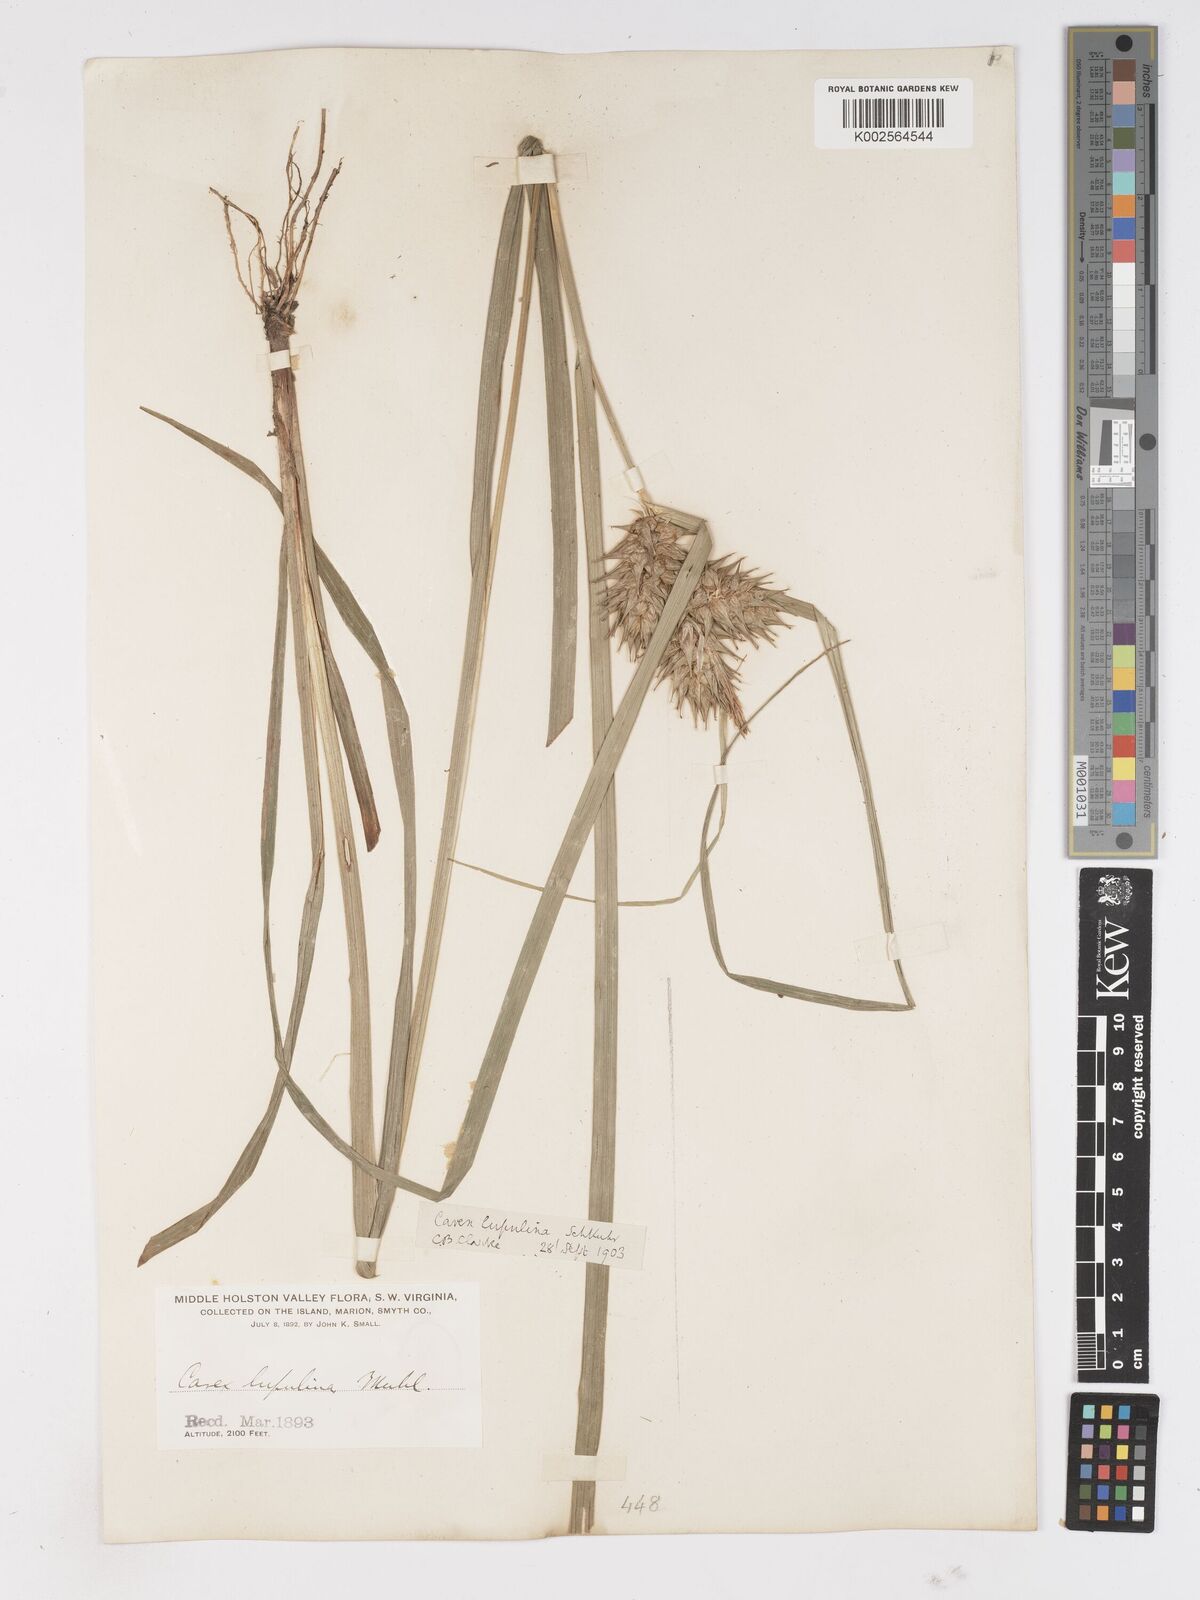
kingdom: Plantae
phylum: Tracheophyta
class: Liliopsida
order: Poales
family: Cyperaceae
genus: Carex
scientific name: Carex lupulina
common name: Hop sedge
